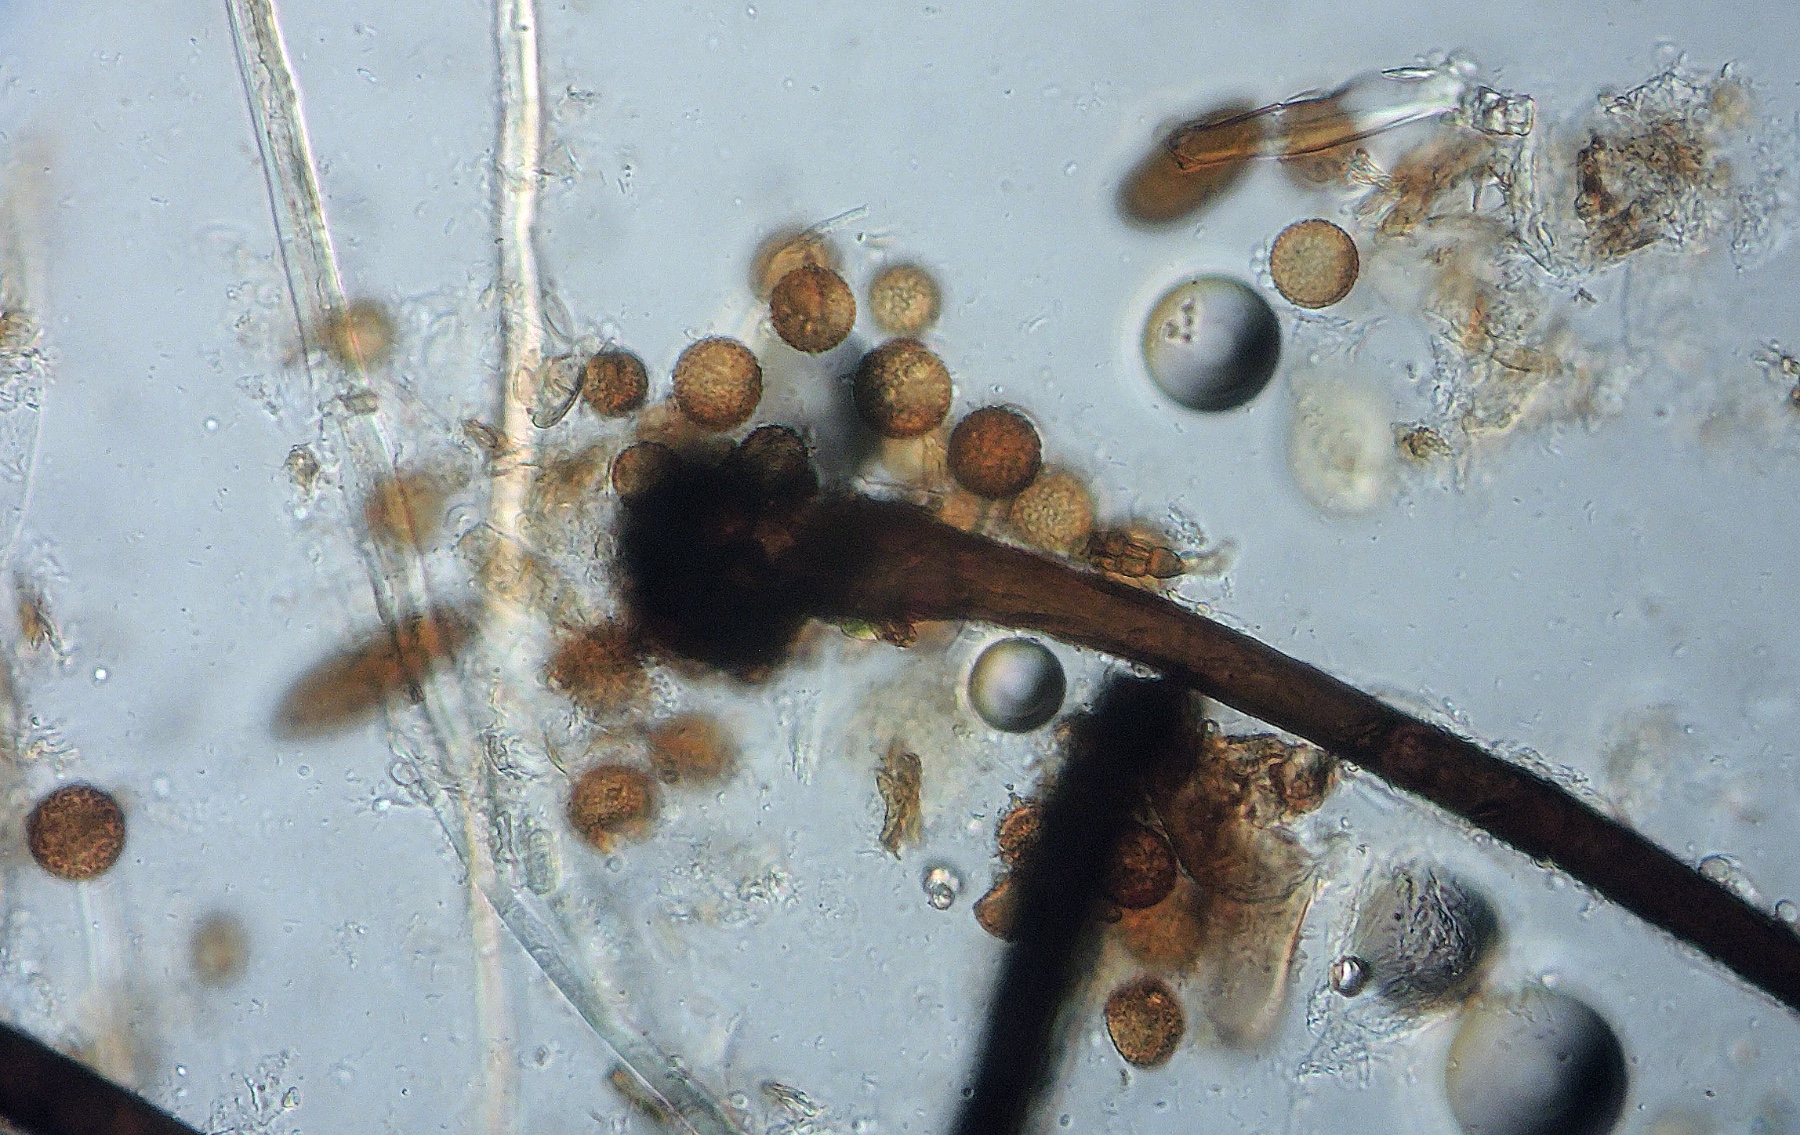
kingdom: Fungi
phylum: Ascomycota
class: Dothideomycetes
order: Pleosporales
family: Periconiaceae
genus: Periconia
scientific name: Periconia cookei
